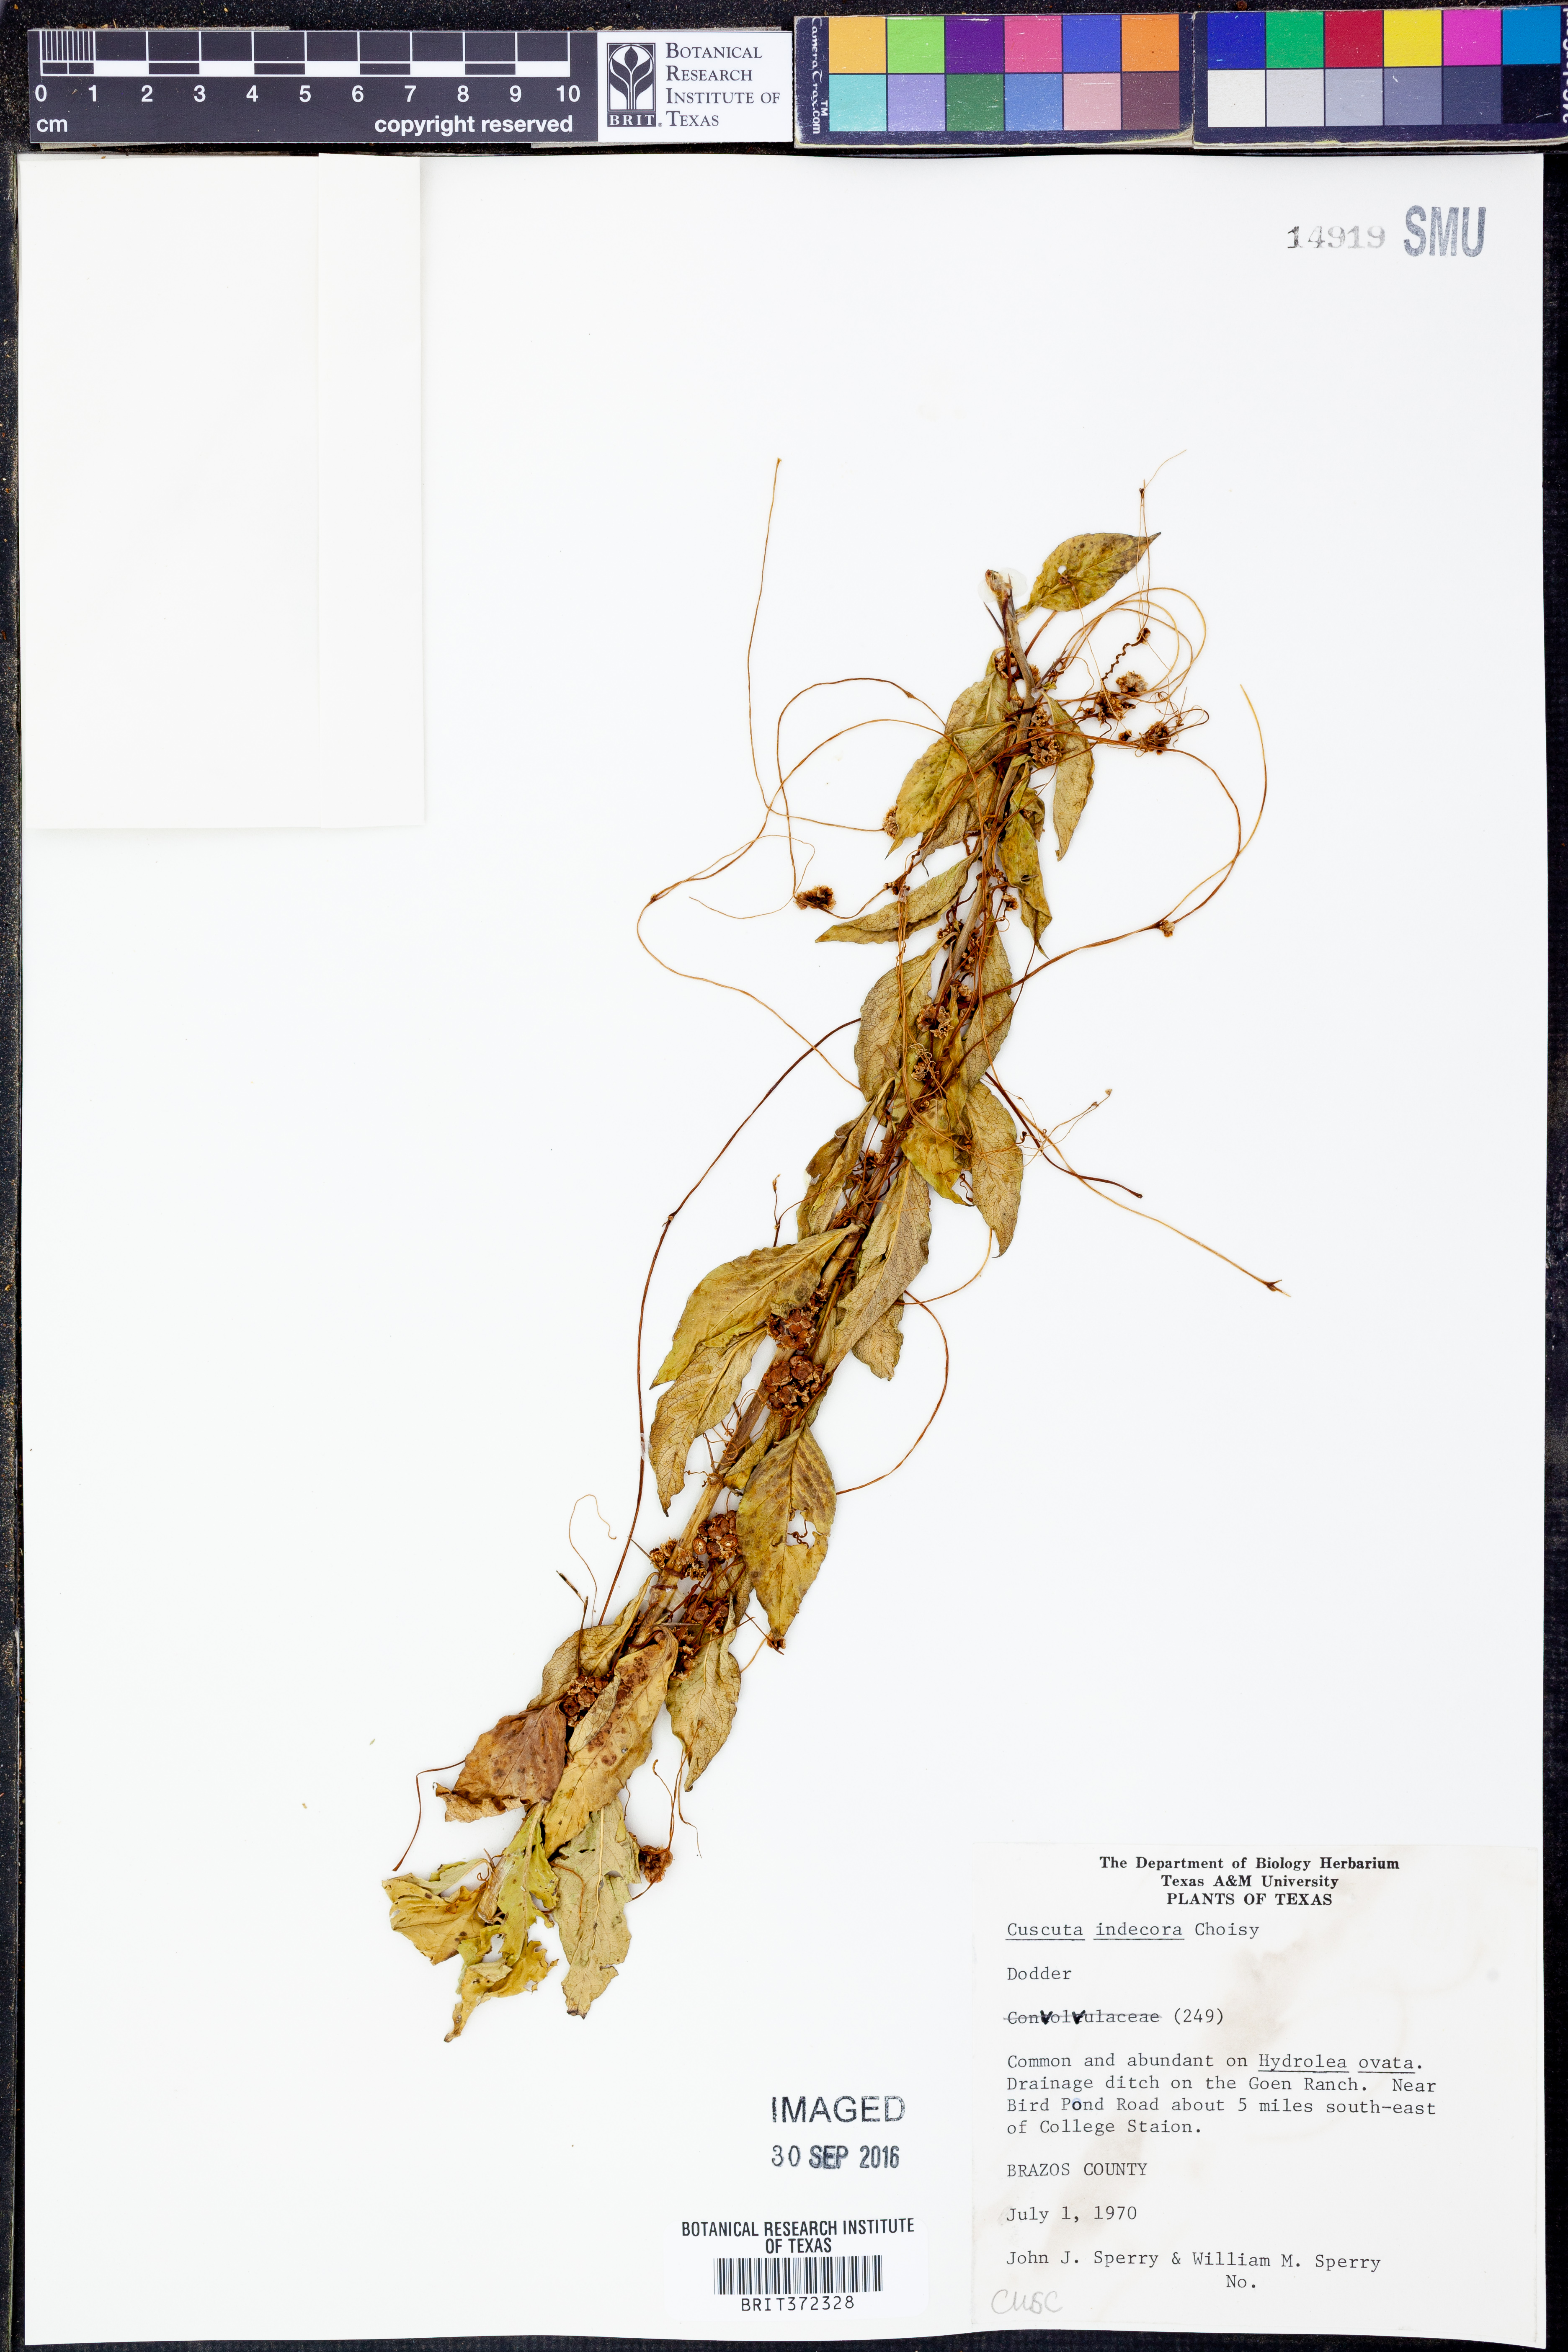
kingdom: Plantae
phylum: Tracheophyta
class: Magnoliopsida
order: Solanales
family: Convolvulaceae
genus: Cuscuta
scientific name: Cuscuta indecora
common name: Large-seed dodder
